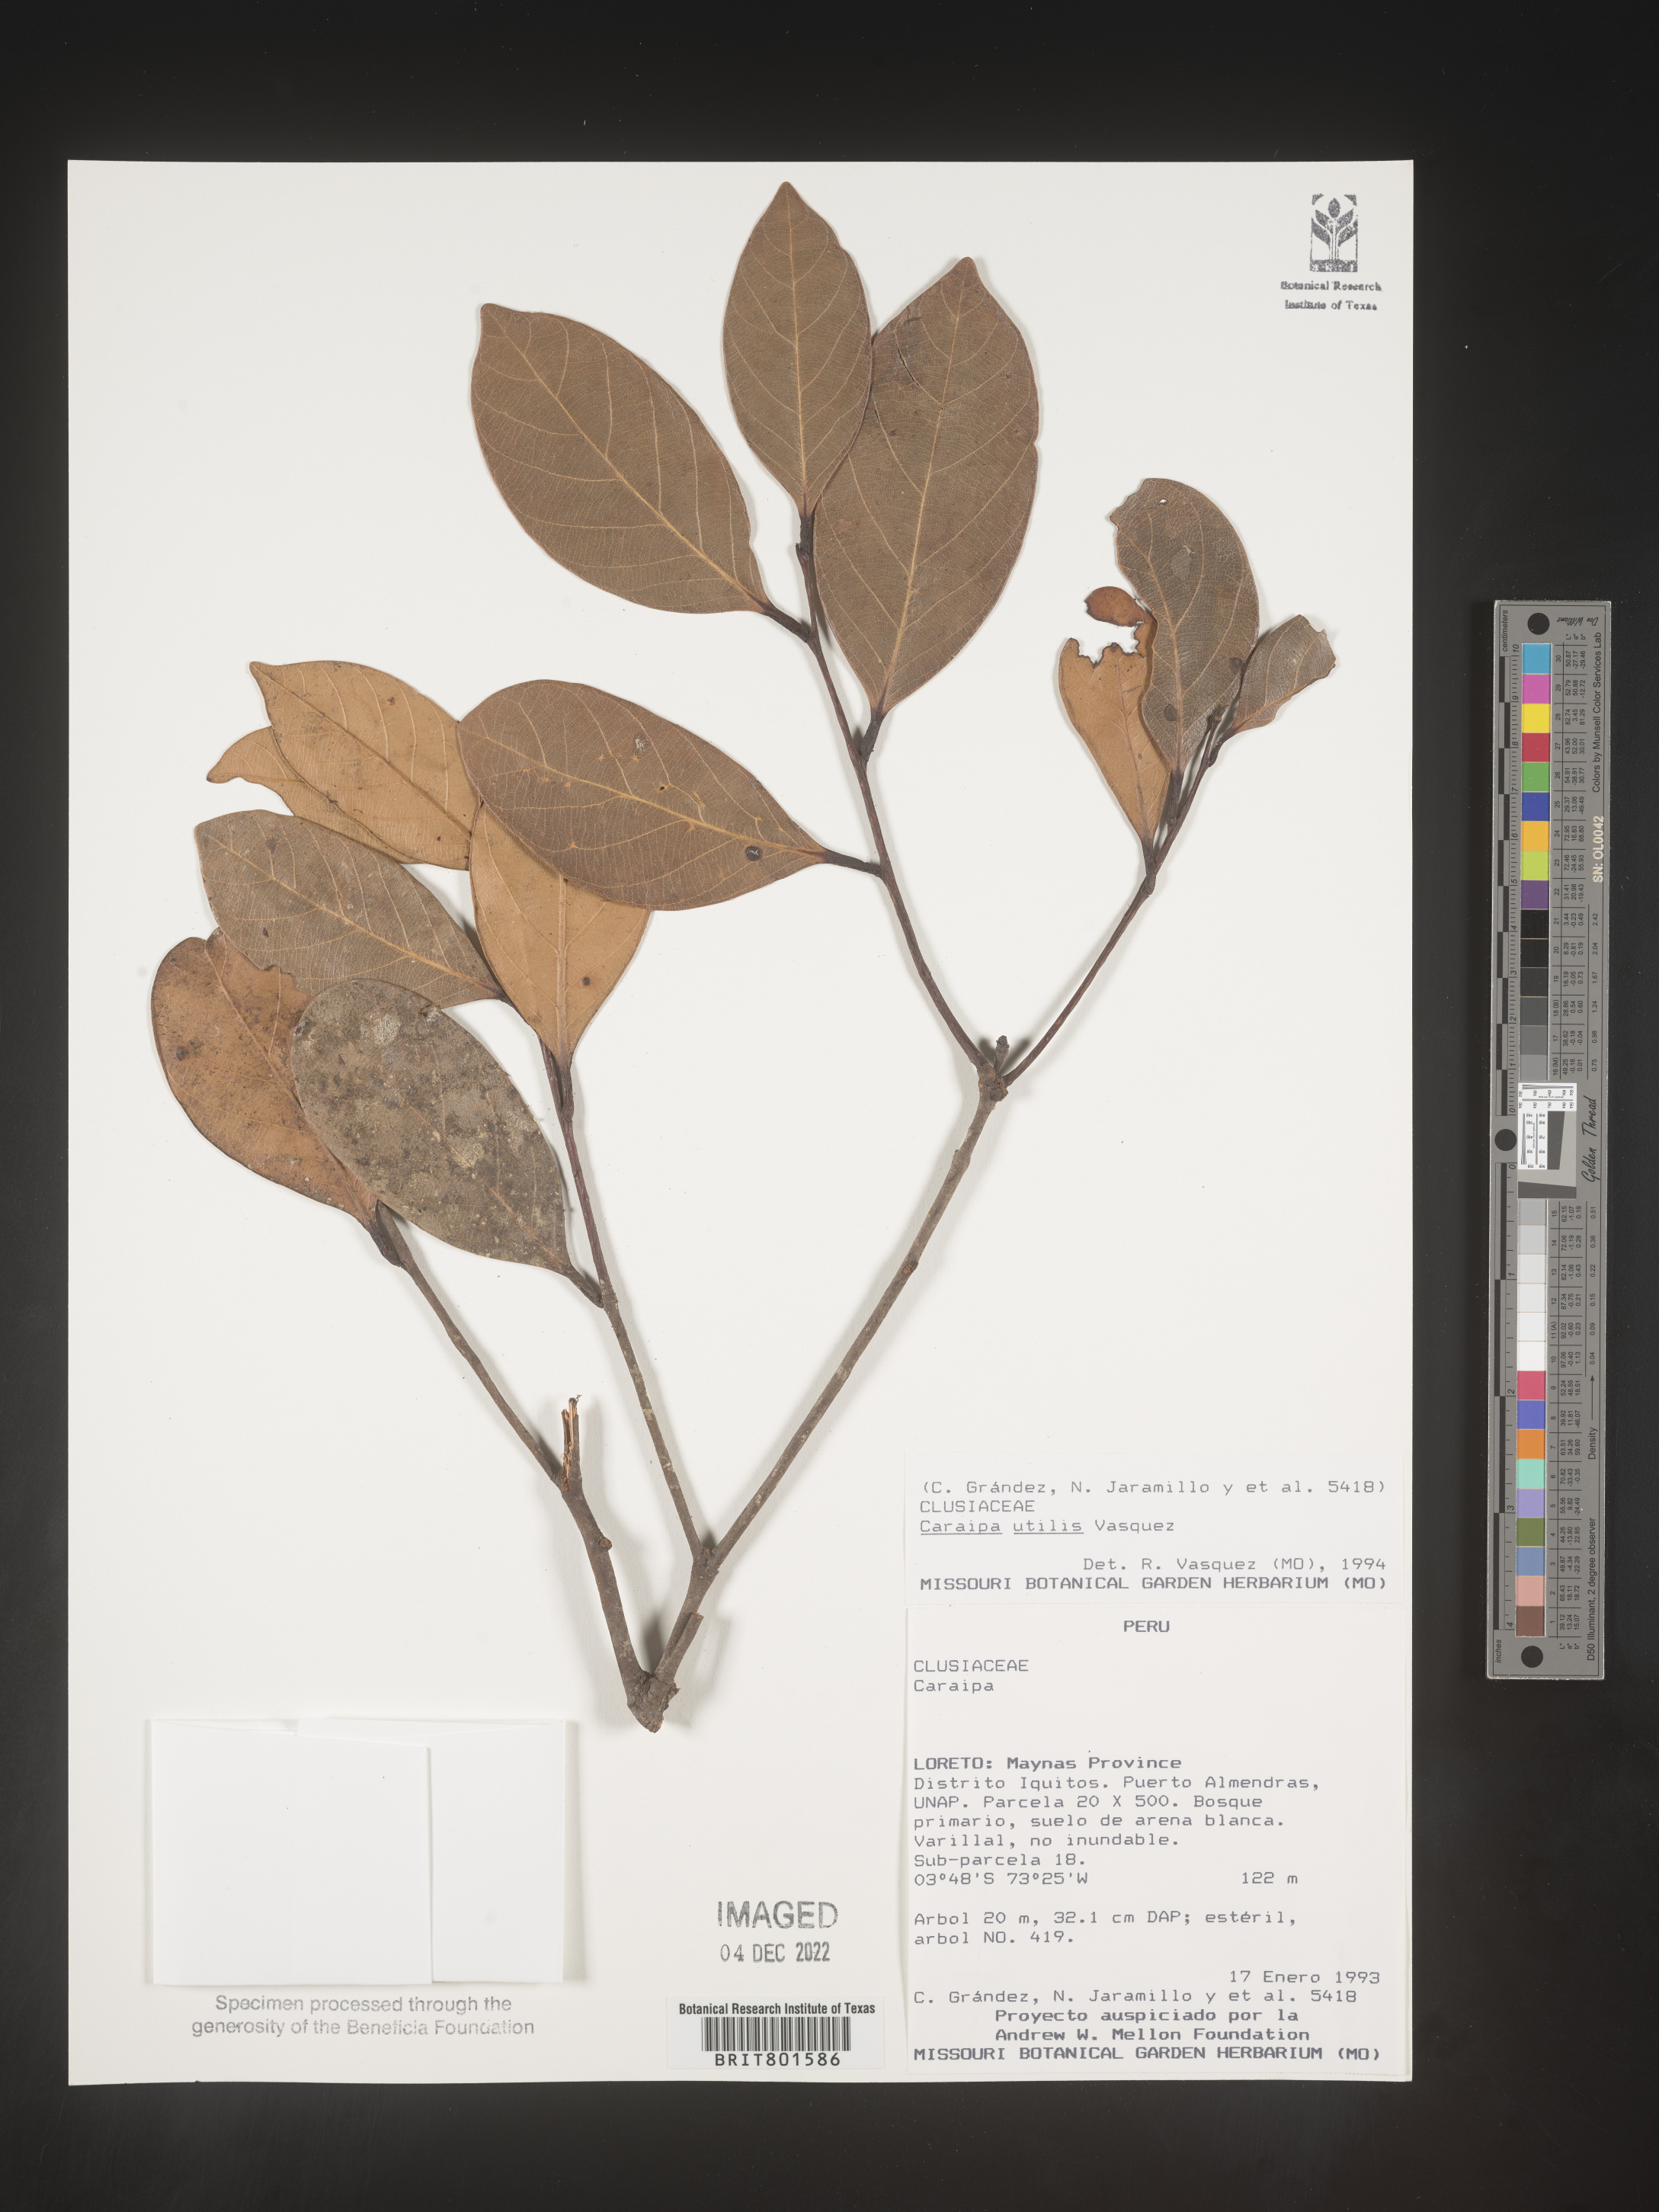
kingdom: Plantae
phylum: Tracheophyta
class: Magnoliopsida
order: Malpighiales
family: Calophyllaceae
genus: Caraipa
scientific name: Caraipa utilis
